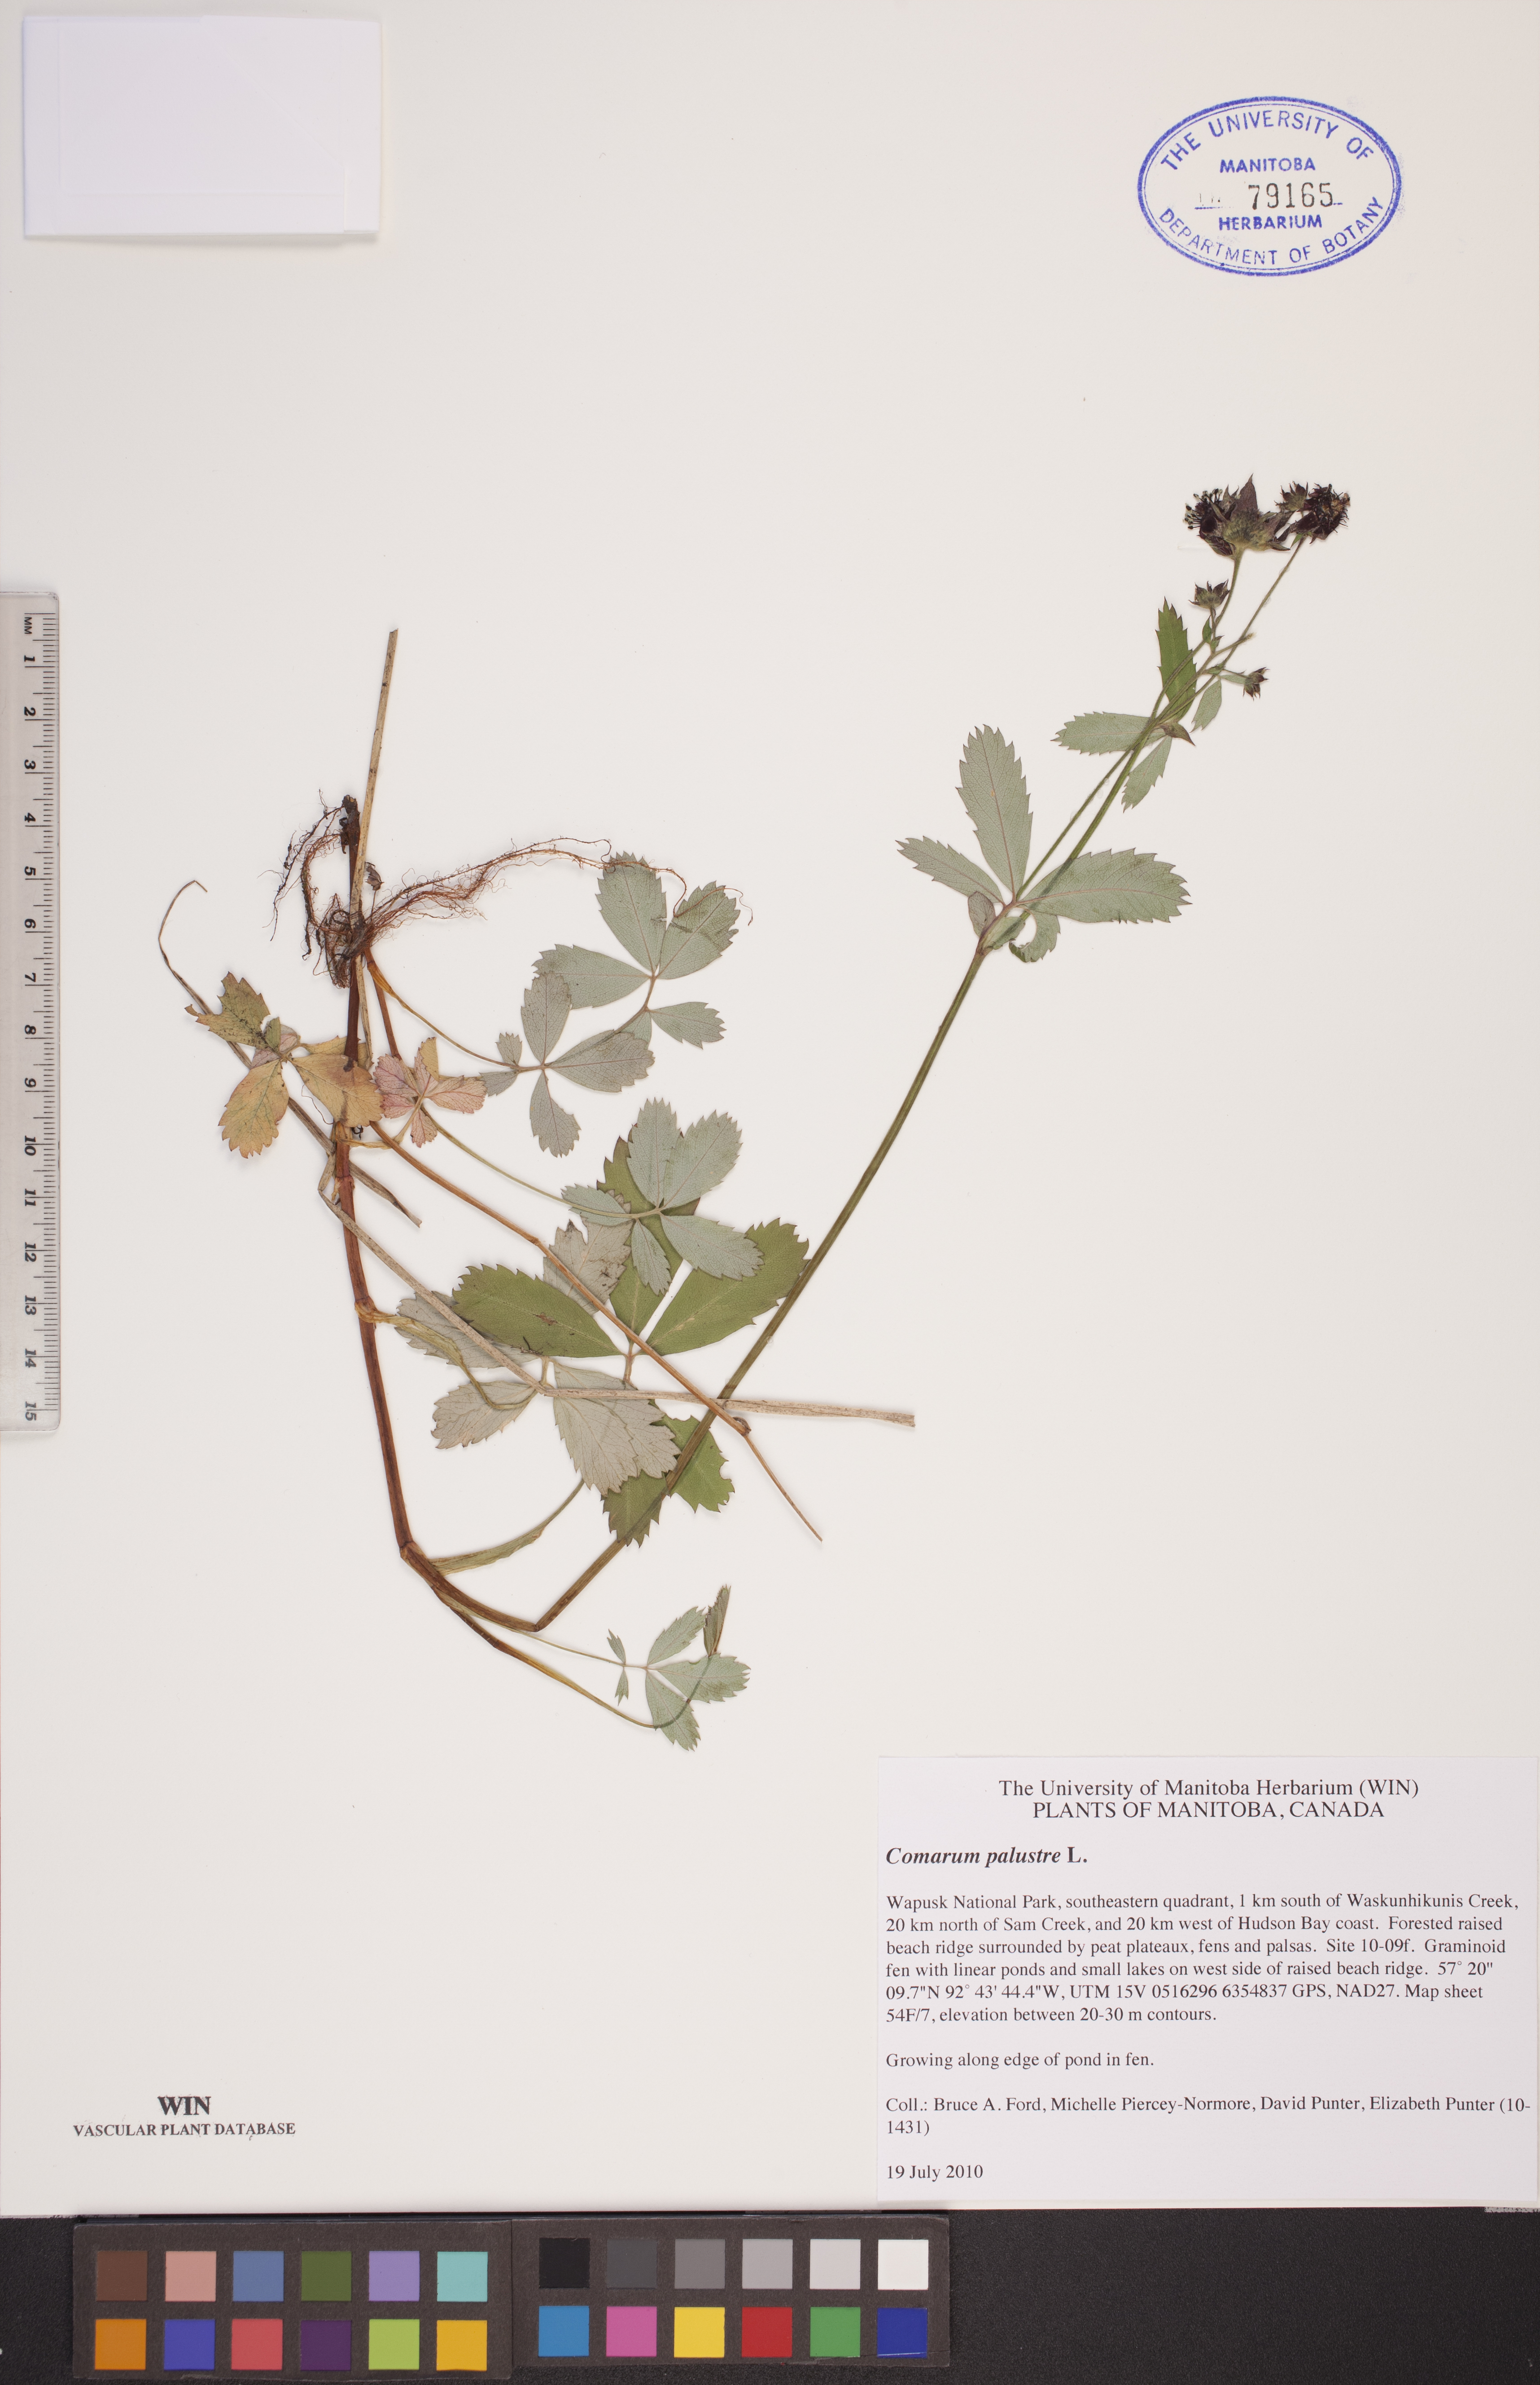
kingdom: Plantae
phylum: Tracheophyta
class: Magnoliopsida
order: Rosales
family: Rosaceae
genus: Comarum
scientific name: Comarum palustre
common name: Marsh cinquefoil
